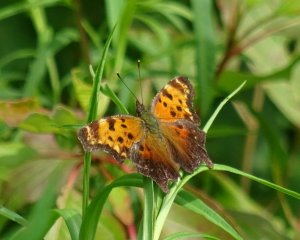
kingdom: Animalia
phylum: Arthropoda
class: Insecta
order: Lepidoptera
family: Nymphalidae
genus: Polygonia
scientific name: Polygonia progne
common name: Gray Comma
